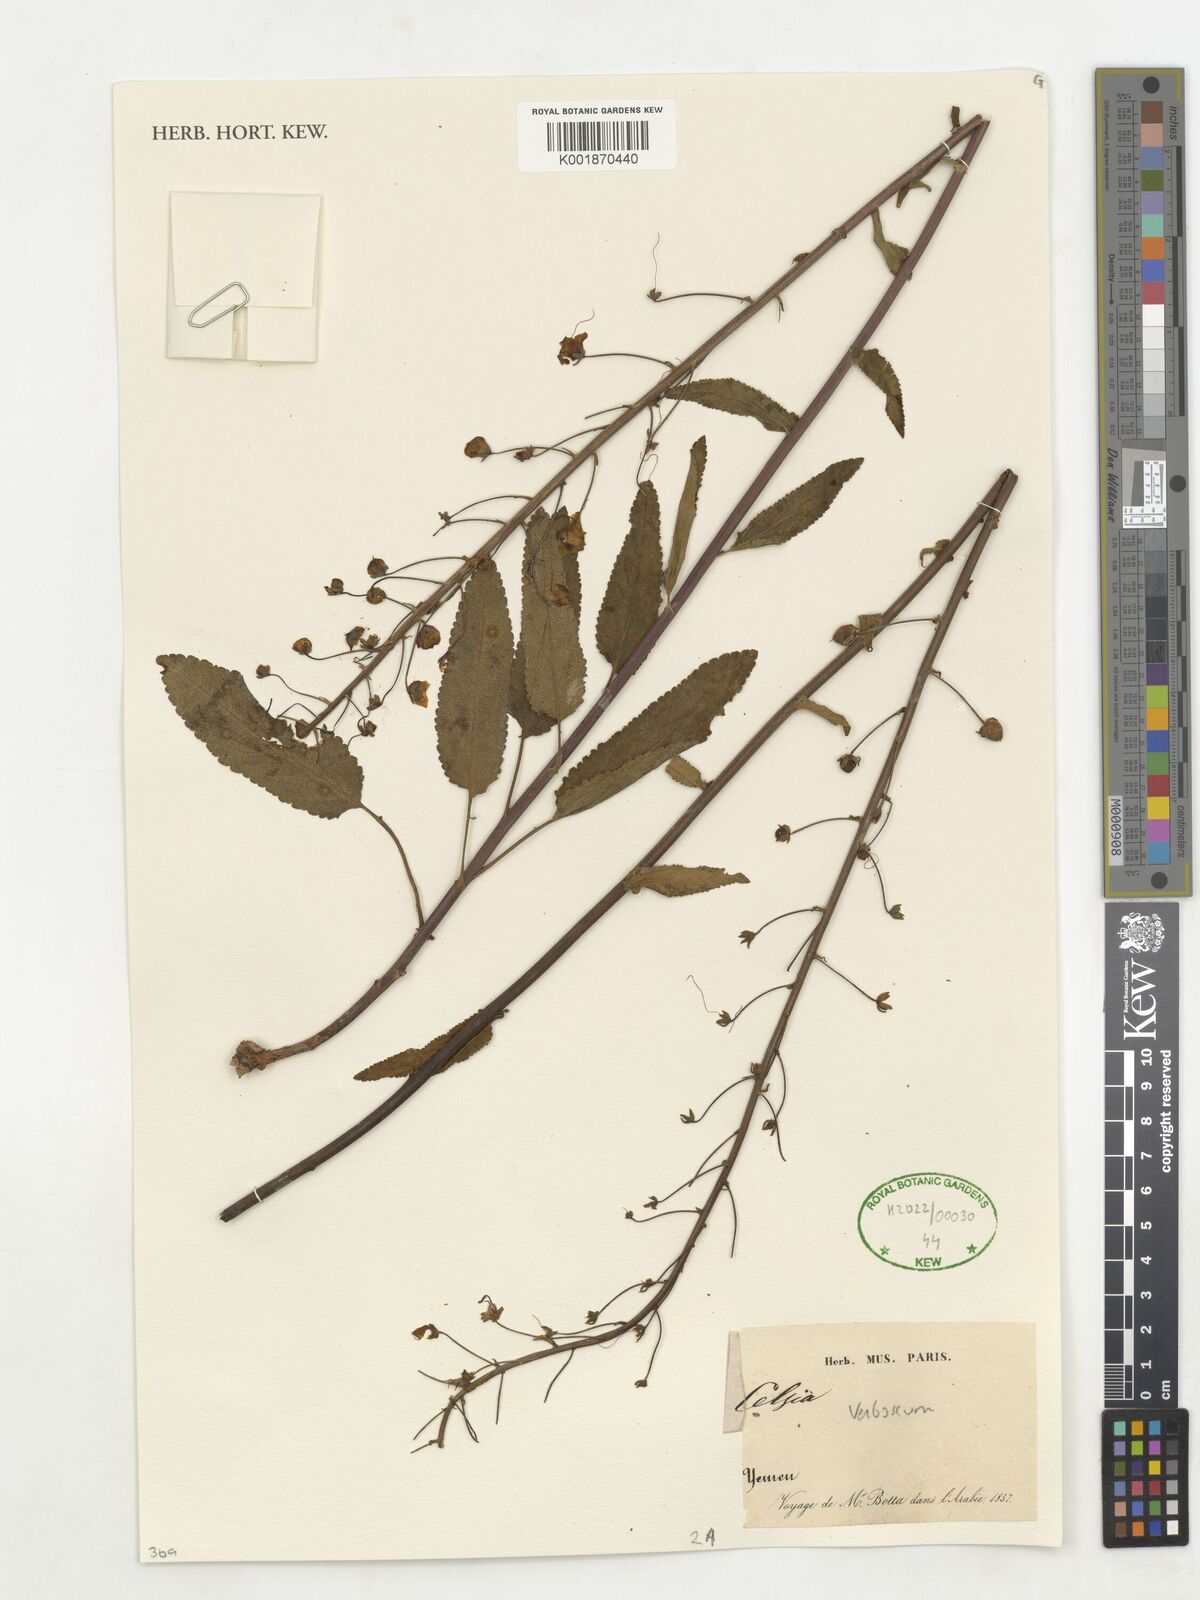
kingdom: Plantae
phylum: Tracheophyta
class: Magnoliopsida
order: Lamiales
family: Scrophulariaceae
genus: Verbascum
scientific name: Verbascum
